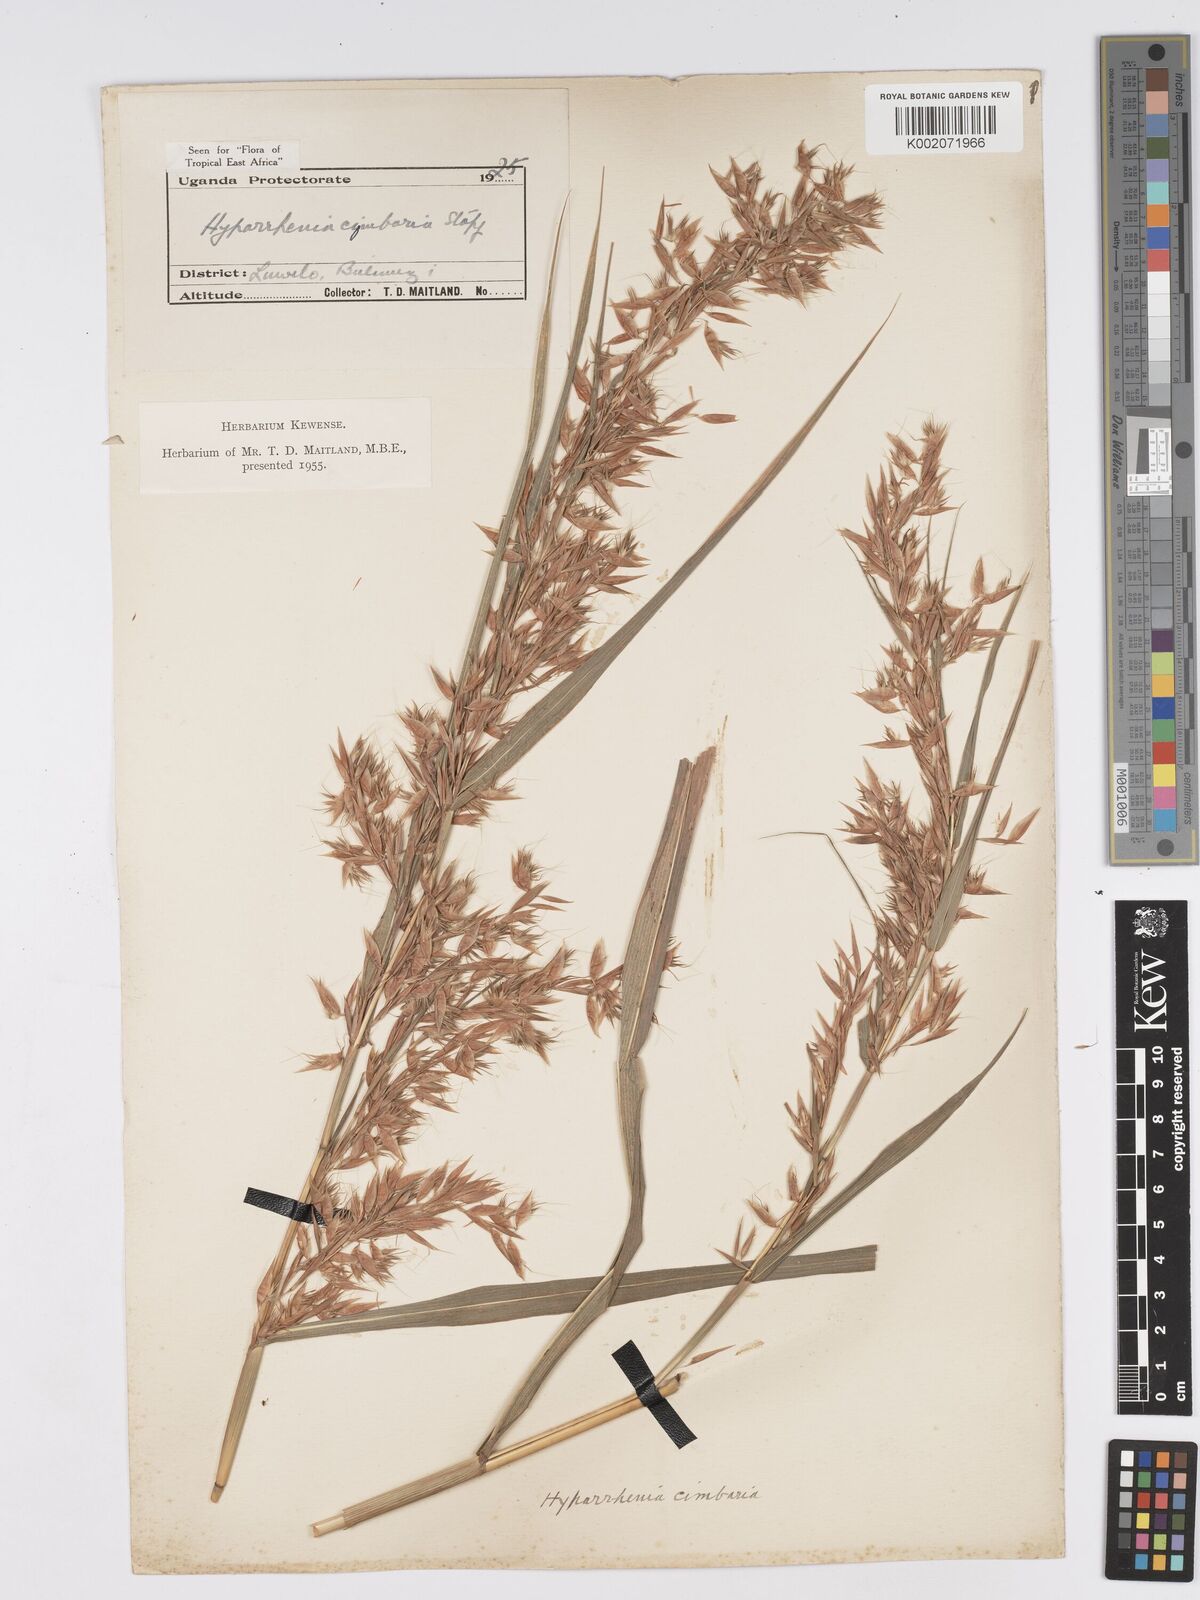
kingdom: Plantae
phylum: Tracheophyta
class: Liliopsida
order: Poales
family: Poaceae
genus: Hyparrhenia
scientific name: Hyparrhenia cymbaria
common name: Boat thatching grass
